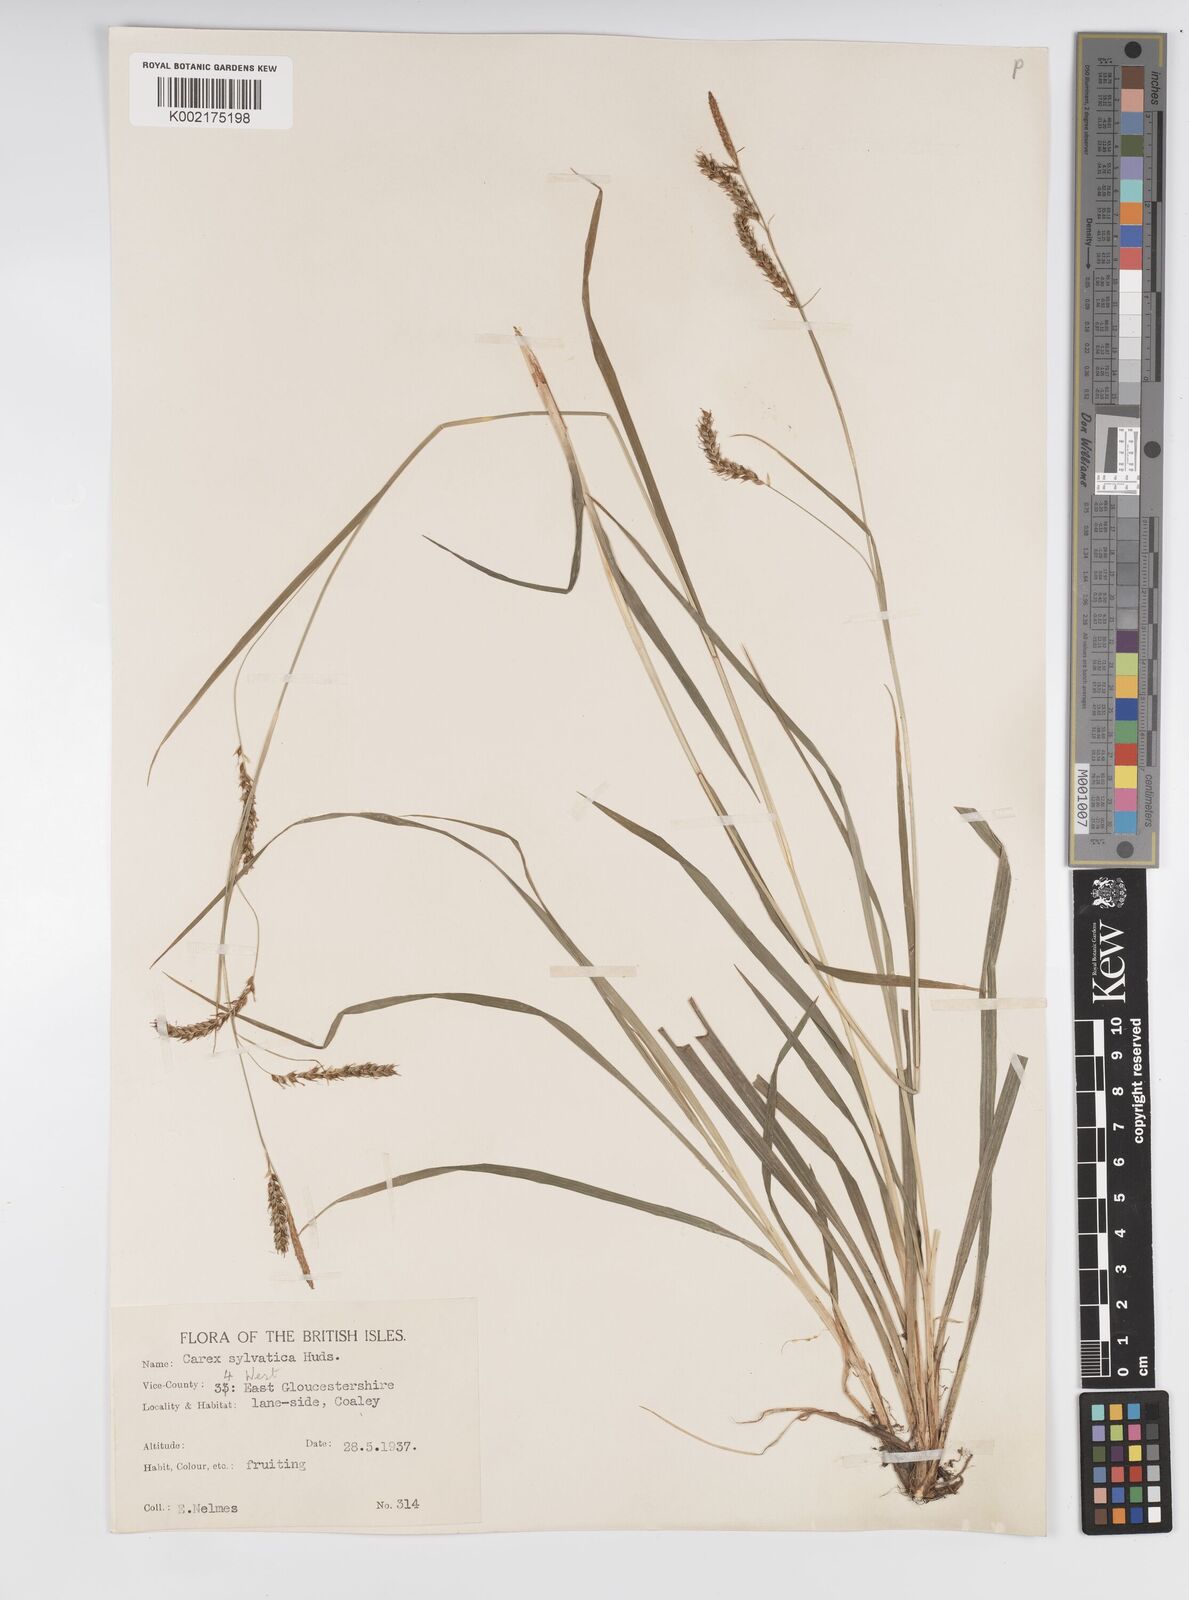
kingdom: Plantae
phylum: Tracheophyta
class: Liliopsida
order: Poales
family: Cyperaceae
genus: Carex
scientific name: Carex sylvatica
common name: Wood-sedge
